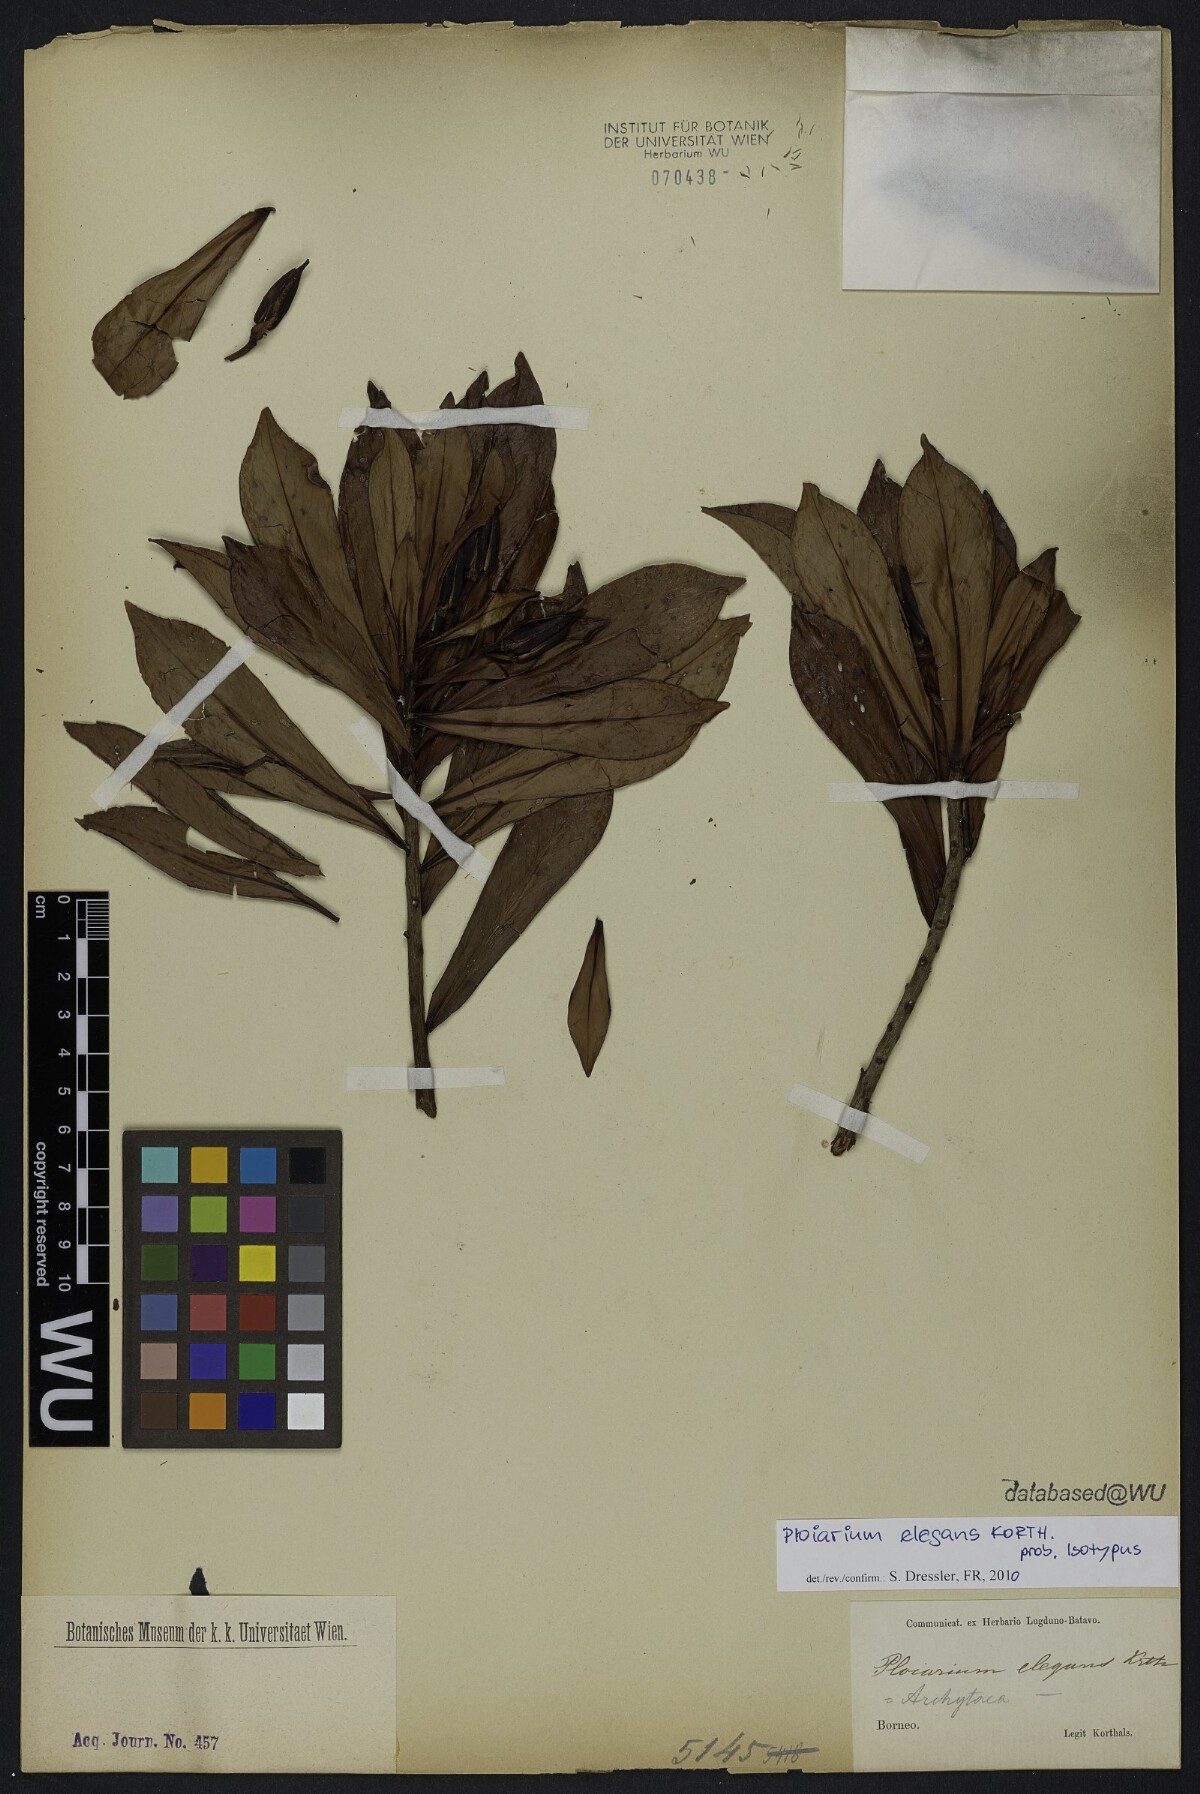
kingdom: Plantae
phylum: Tracheophyta
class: Magnoliopsida
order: Malpighiales
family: Bonnetiaceae
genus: Ploiarium
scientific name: Ploiarium elegans
